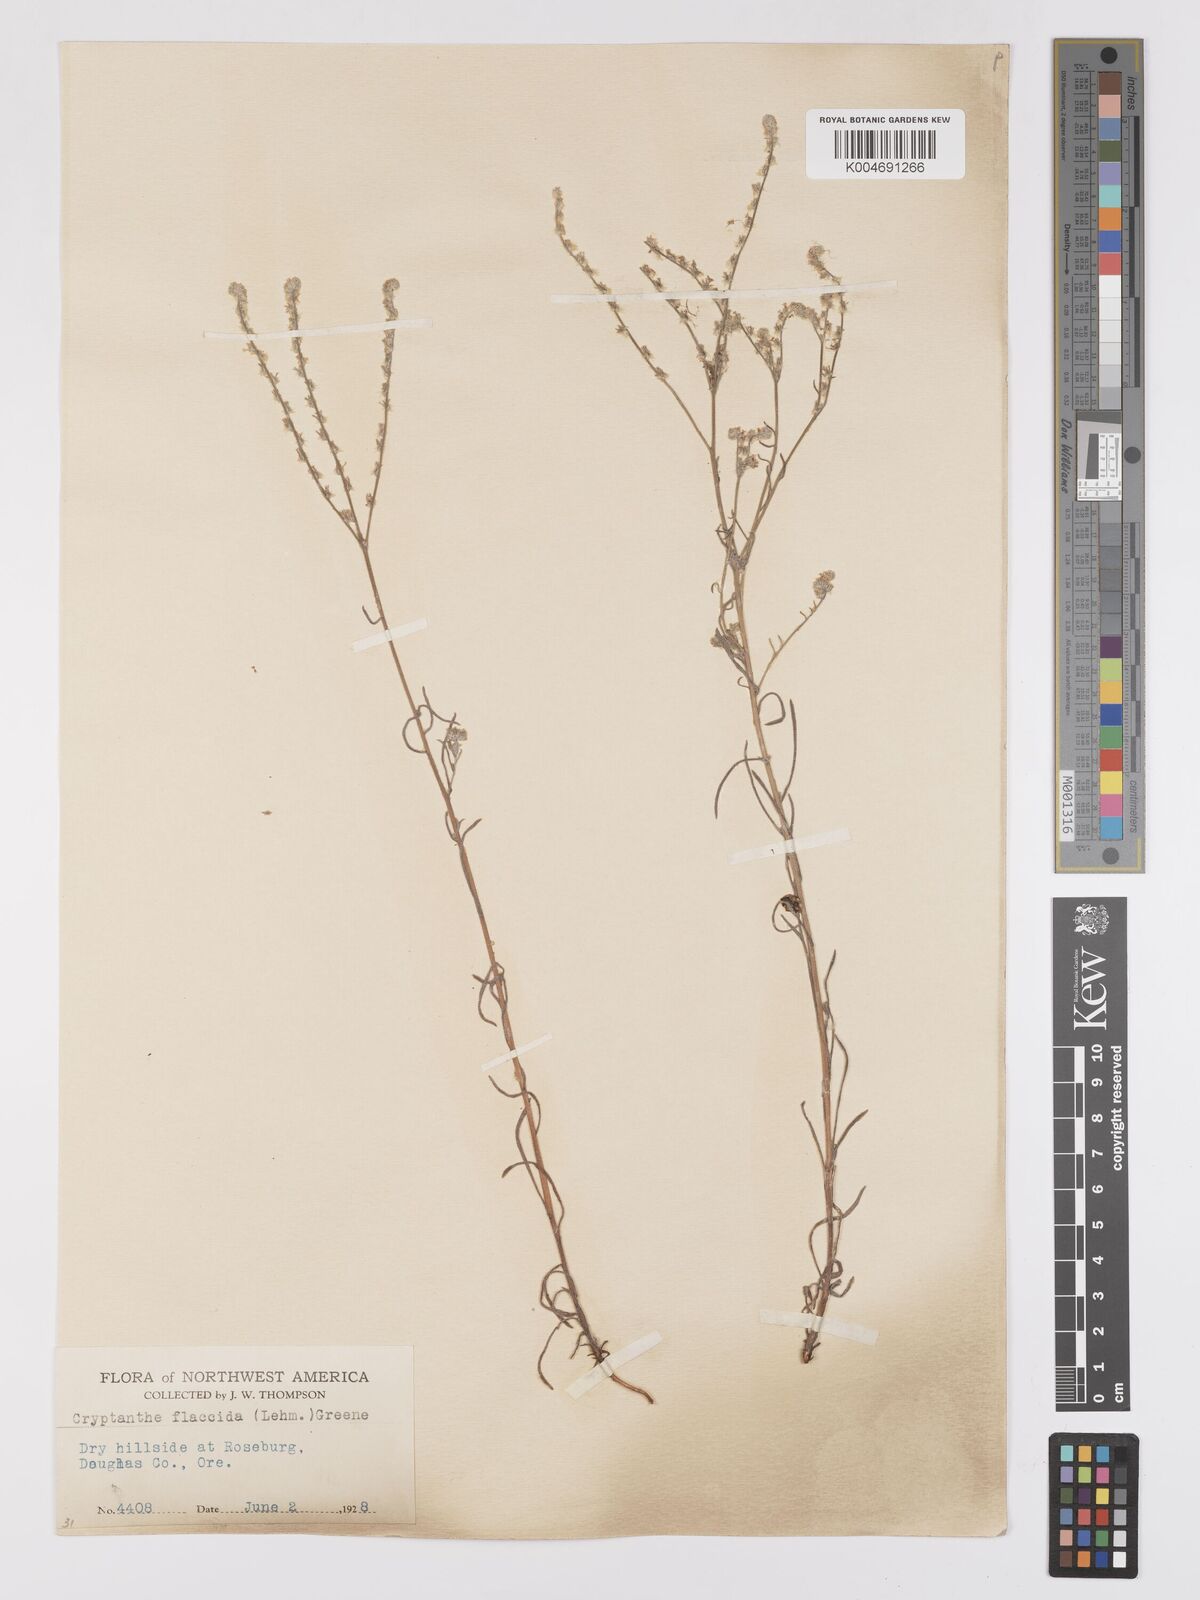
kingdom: Plantae
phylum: Tracheophyta
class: Magnoliopsida
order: Boraginales
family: Boraginaceae
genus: Cryptantha
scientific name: Cryptantha flaccida
